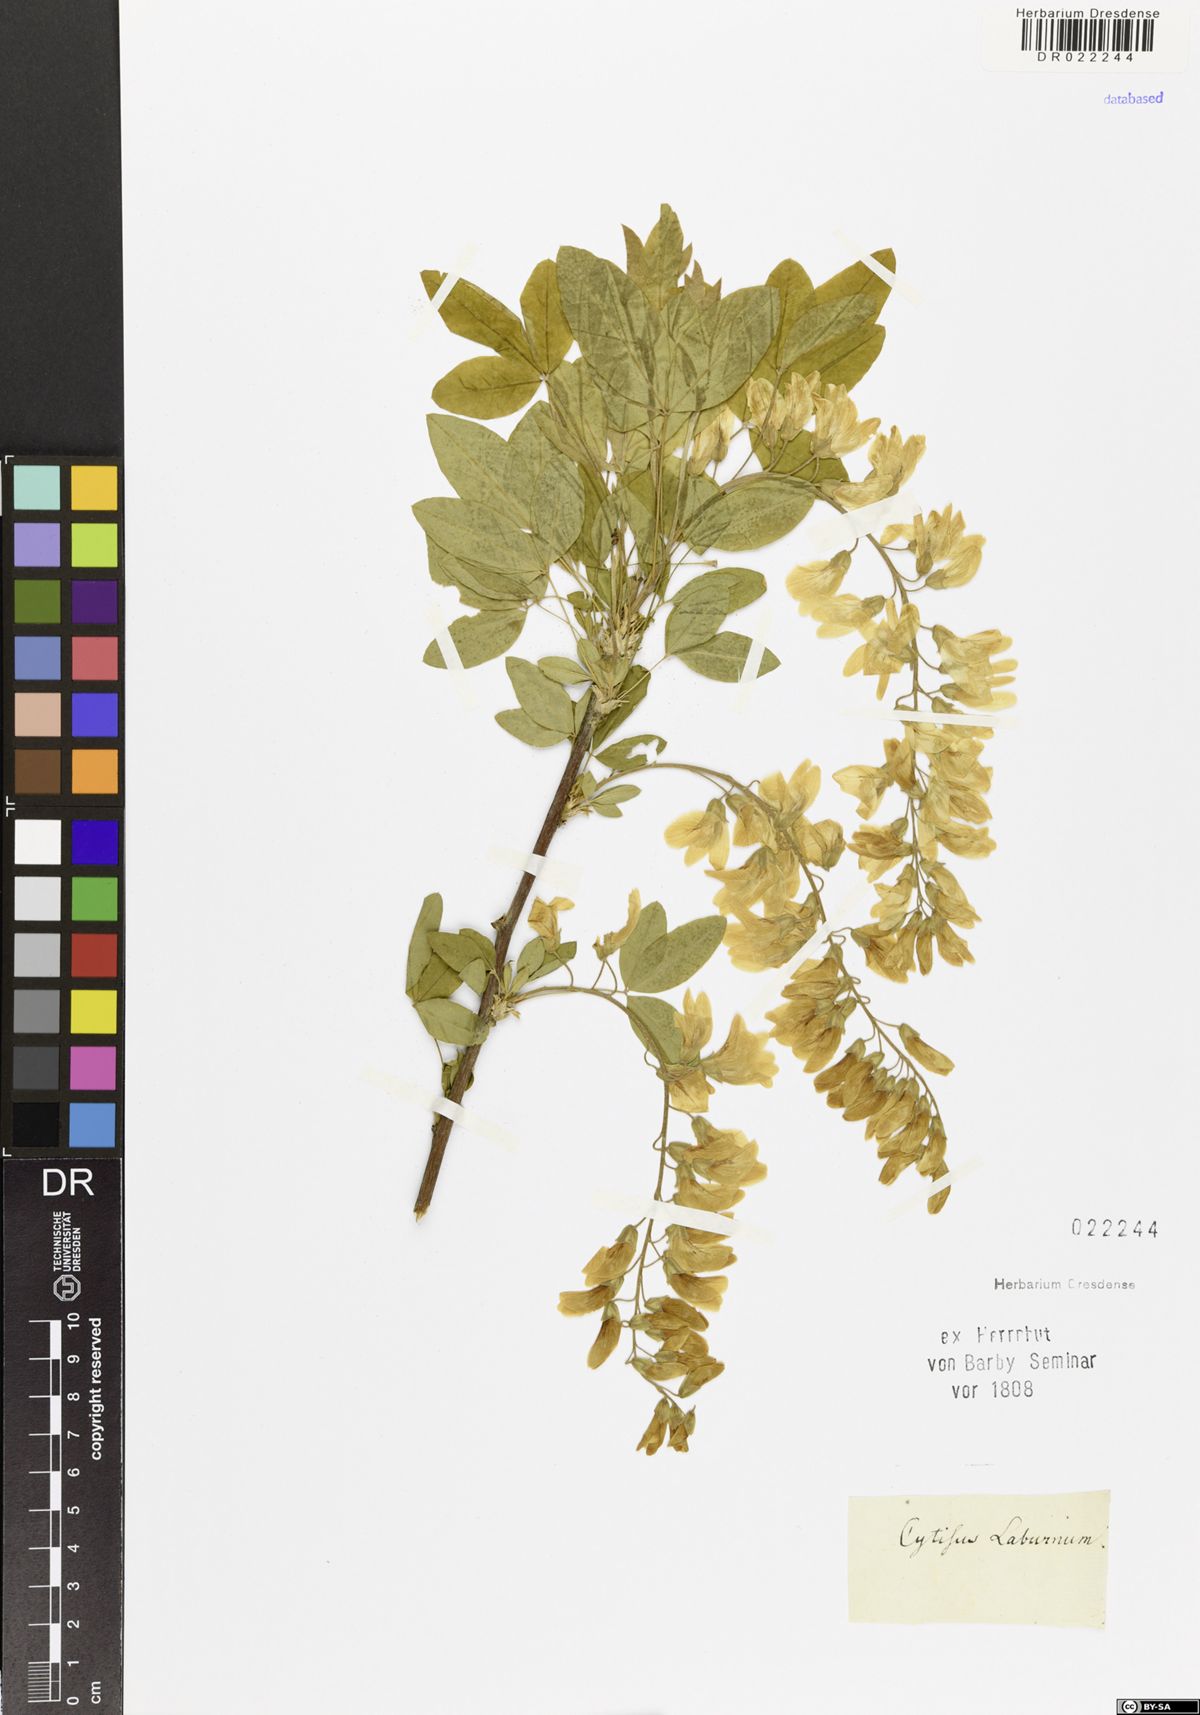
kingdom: Plantae
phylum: Tracheophyta
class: Magnoliopsida
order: Fabales
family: Fabaceae
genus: Laburnum
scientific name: Laburnum anagyroides
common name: Laburnum
